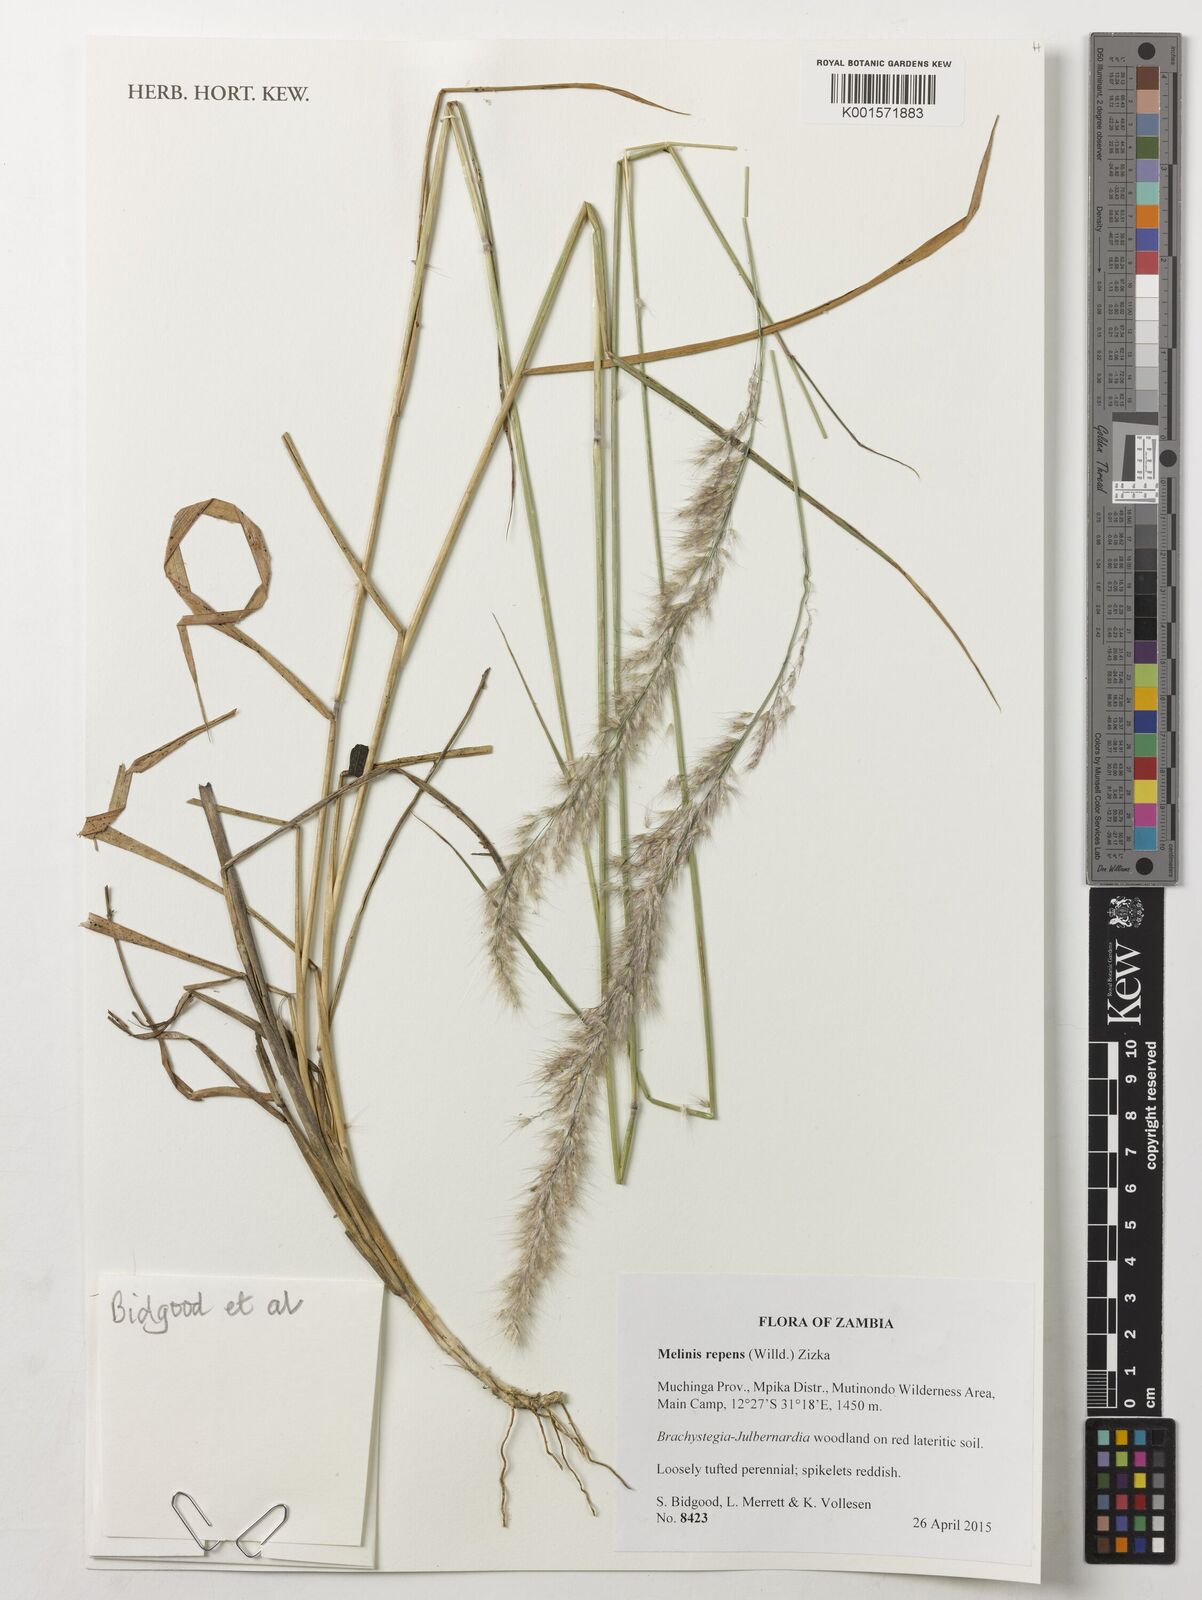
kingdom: Plantae
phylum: Tracheophyta
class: Liliopsida
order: Poales
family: Poaceae
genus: Melinis
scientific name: Melinis repens
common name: Rose natal grass
